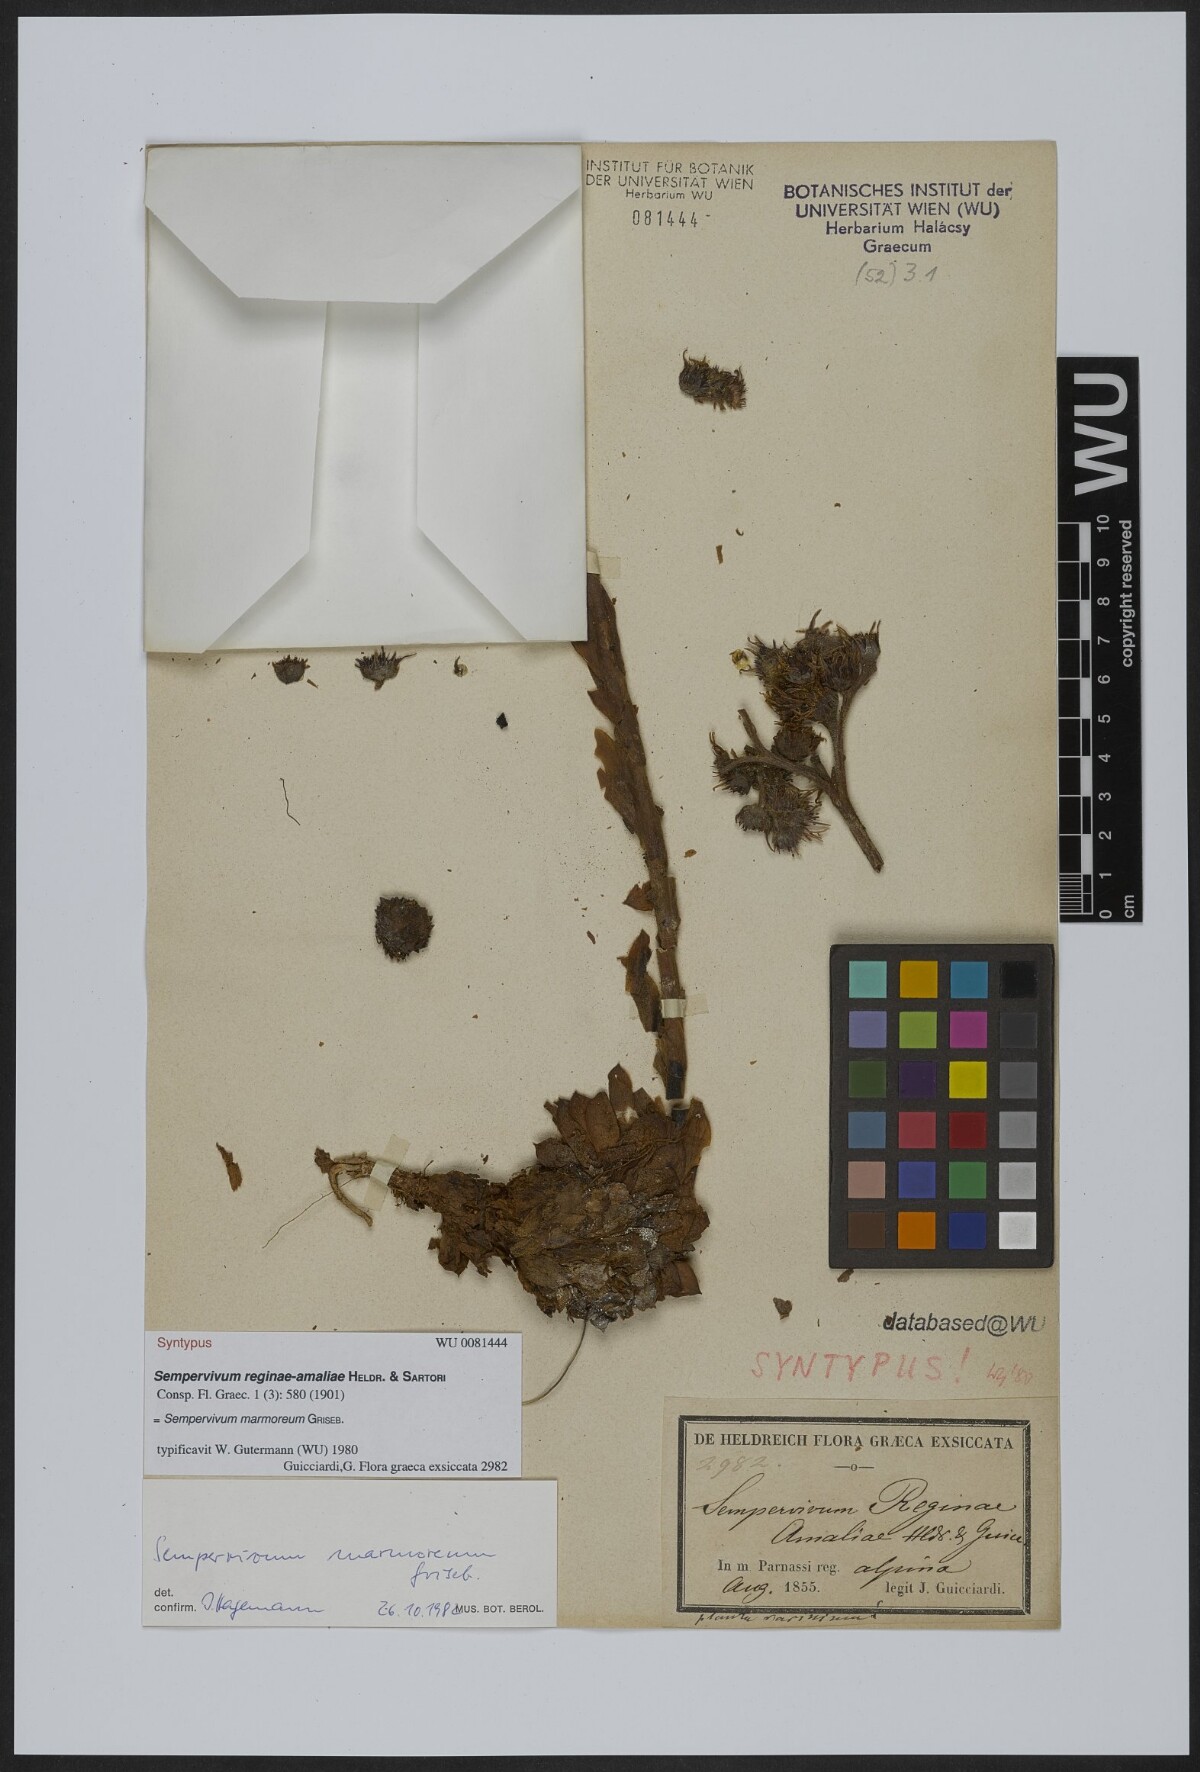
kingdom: Plantae
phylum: Tracheophyta
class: Magnoliopsida
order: Saxifragales
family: Crassulaceae
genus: Sempervivum
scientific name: Sempervivum verereginae-amaliae
